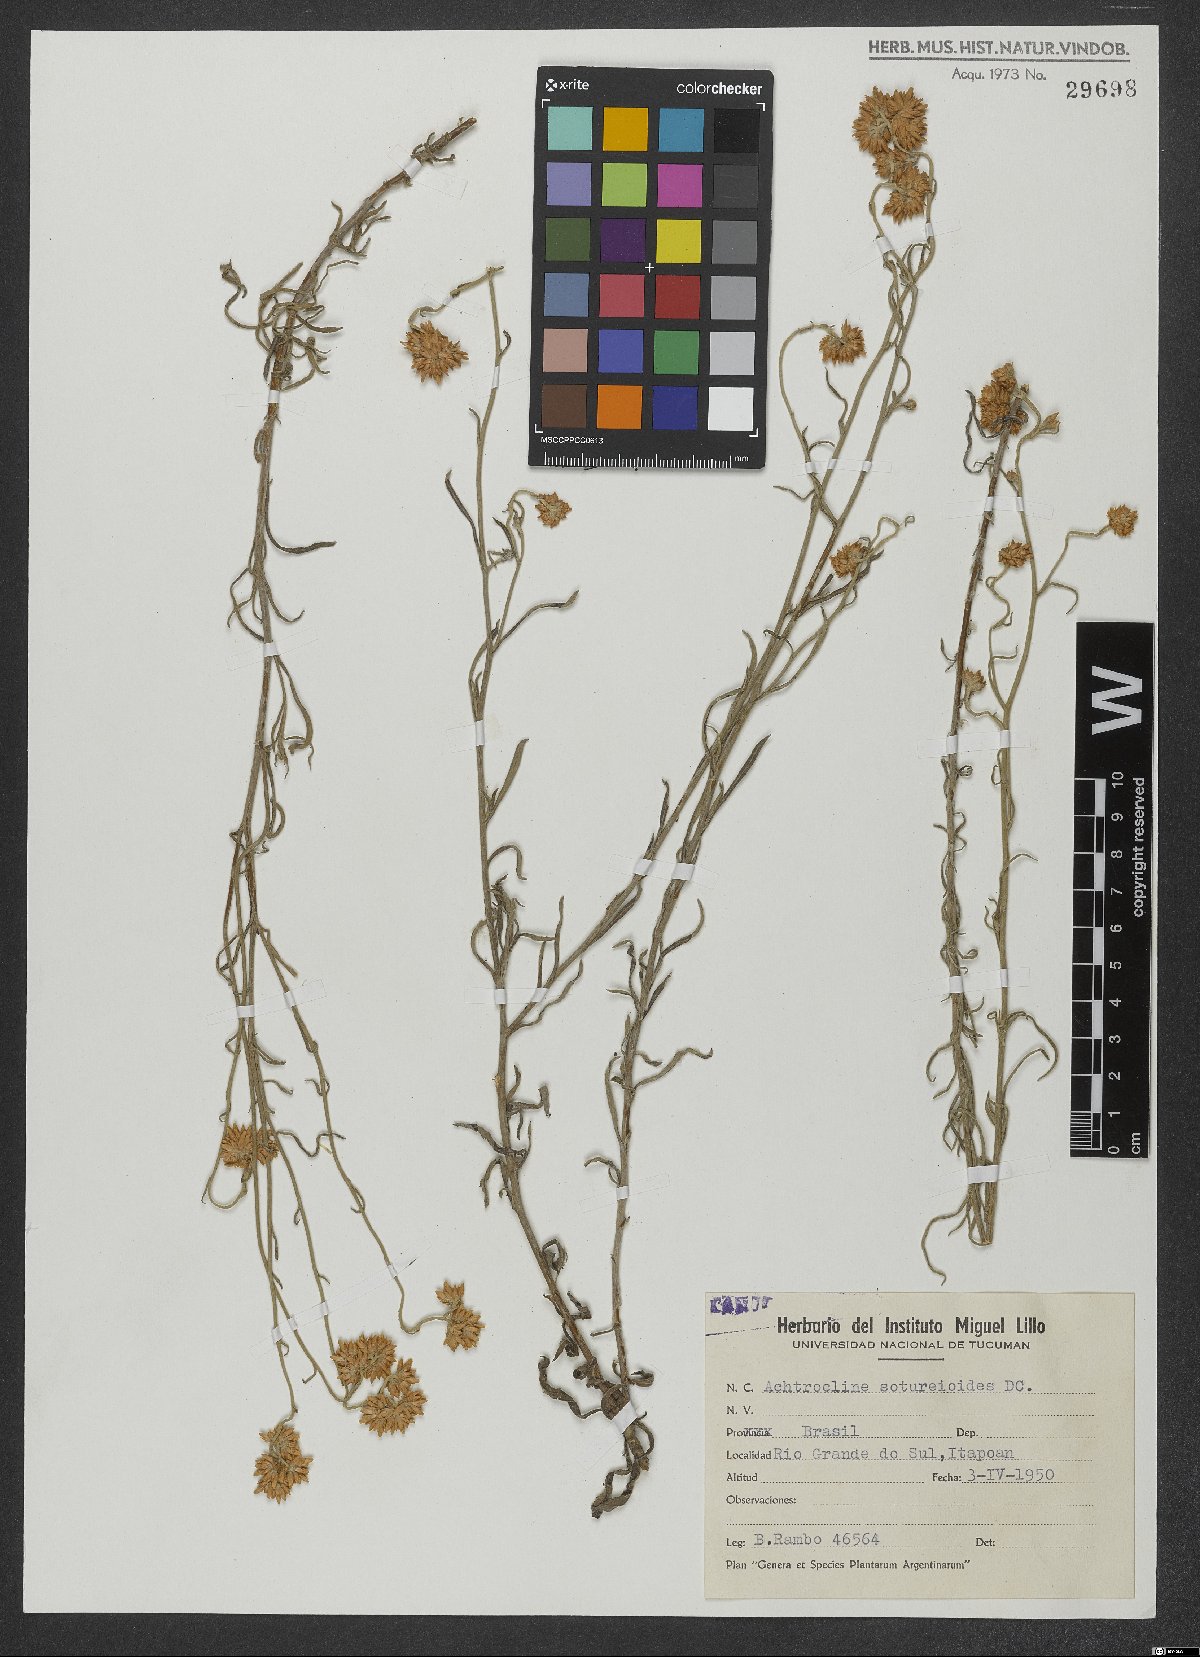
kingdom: Plantae
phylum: Tracheophyta
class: Magnoliopsida
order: Asterales
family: Asteraceae
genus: Achyrocline
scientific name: Achyrocline satureioides
